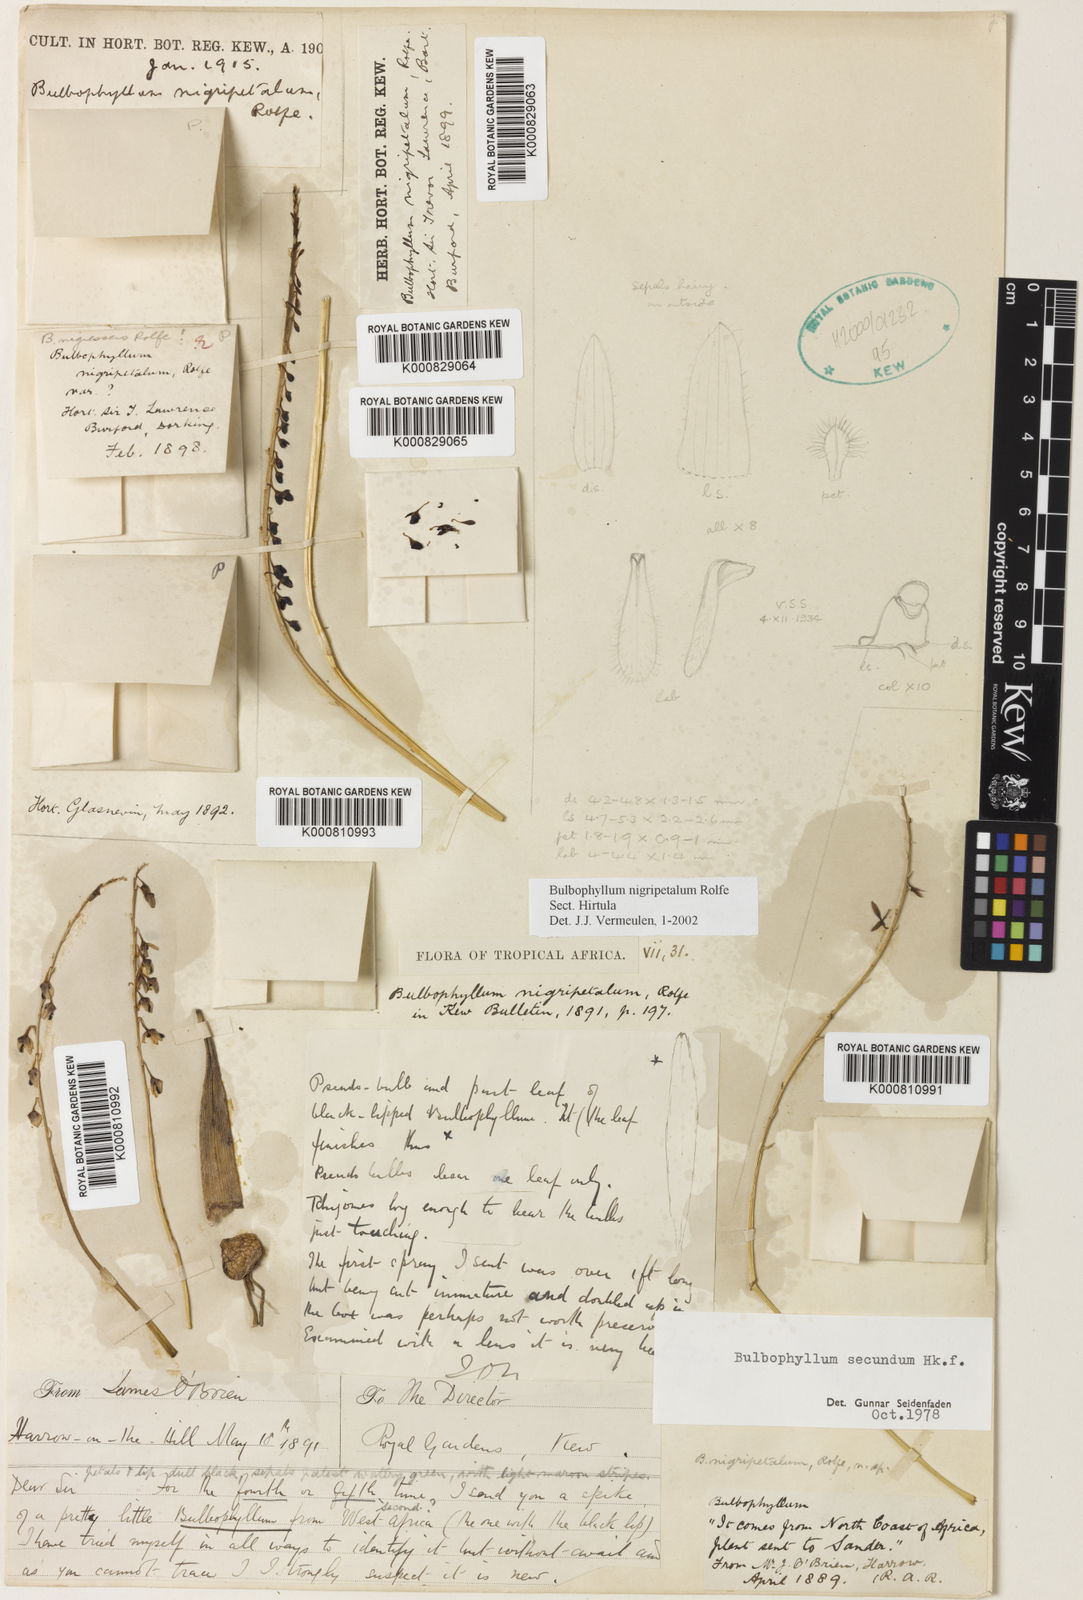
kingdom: Plantae
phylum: Tracheophyta
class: Liliopsida
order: Asparagales
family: Orchidaceae
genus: Bulbophyllum
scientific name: Bulbophyllum secundum
